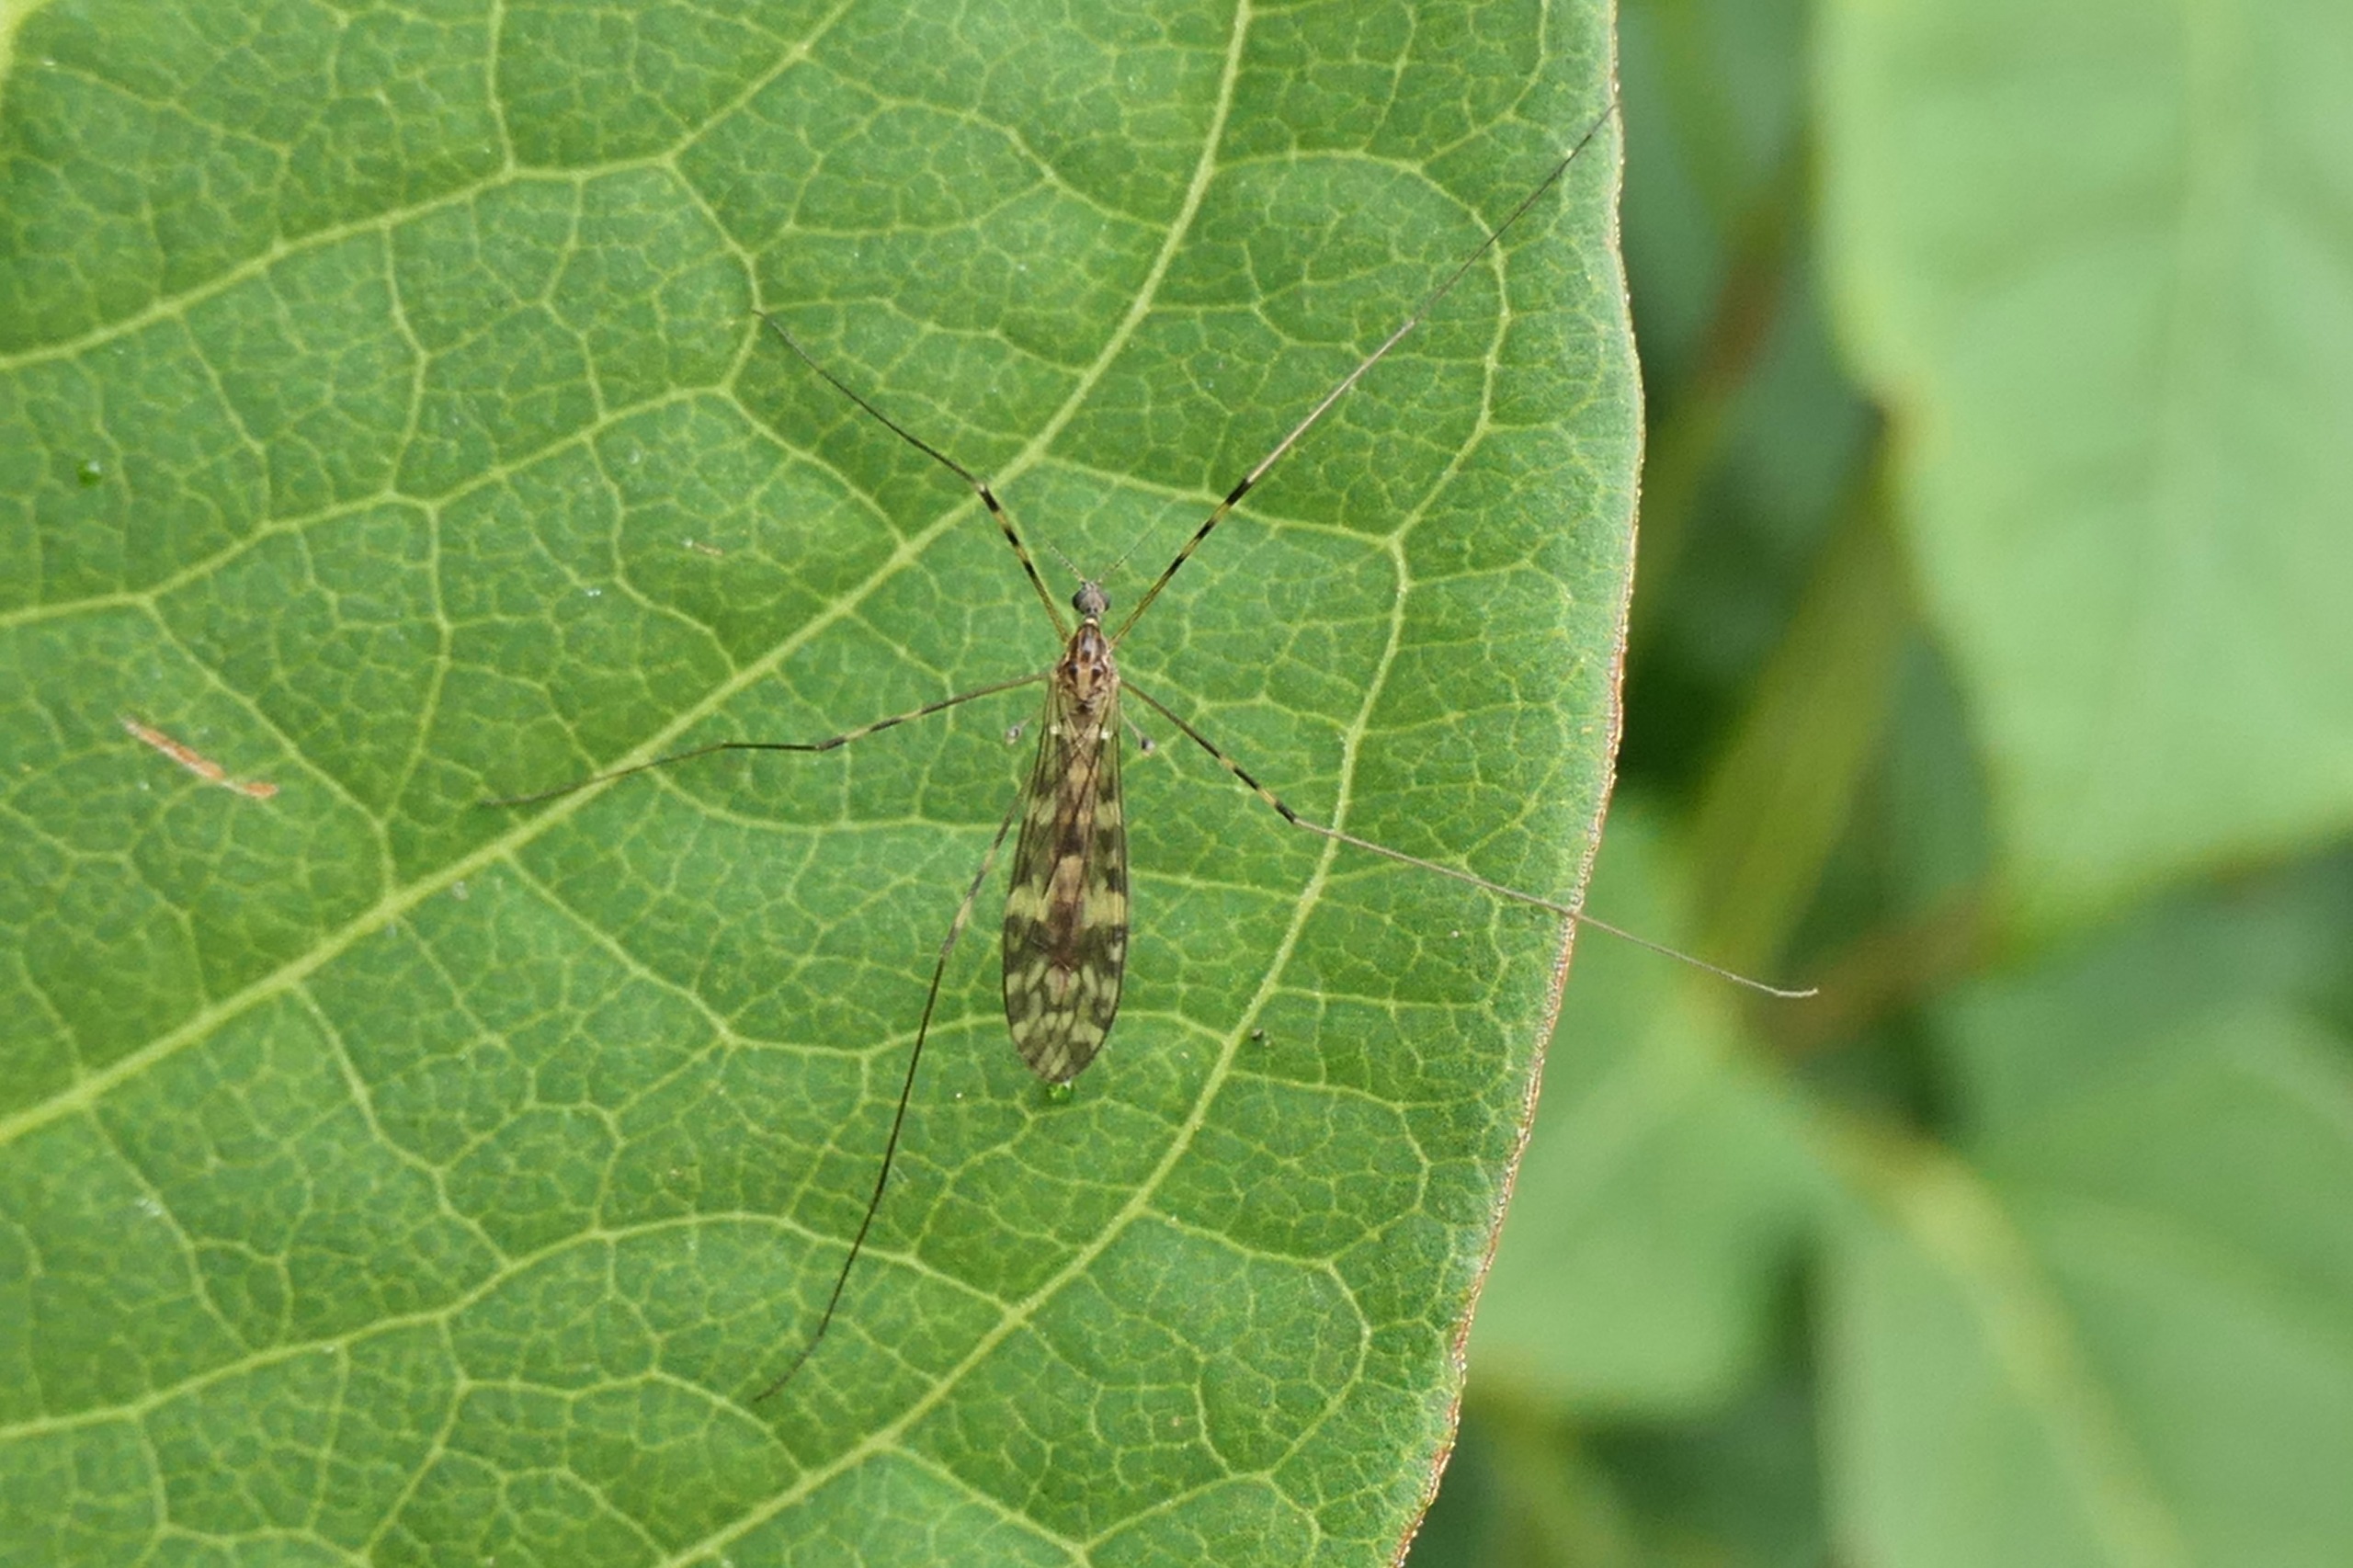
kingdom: Animalia
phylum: Arthropoda
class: Insecta
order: Diptera
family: Limoniidae
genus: Limonia
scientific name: Limonia nubeculosa
